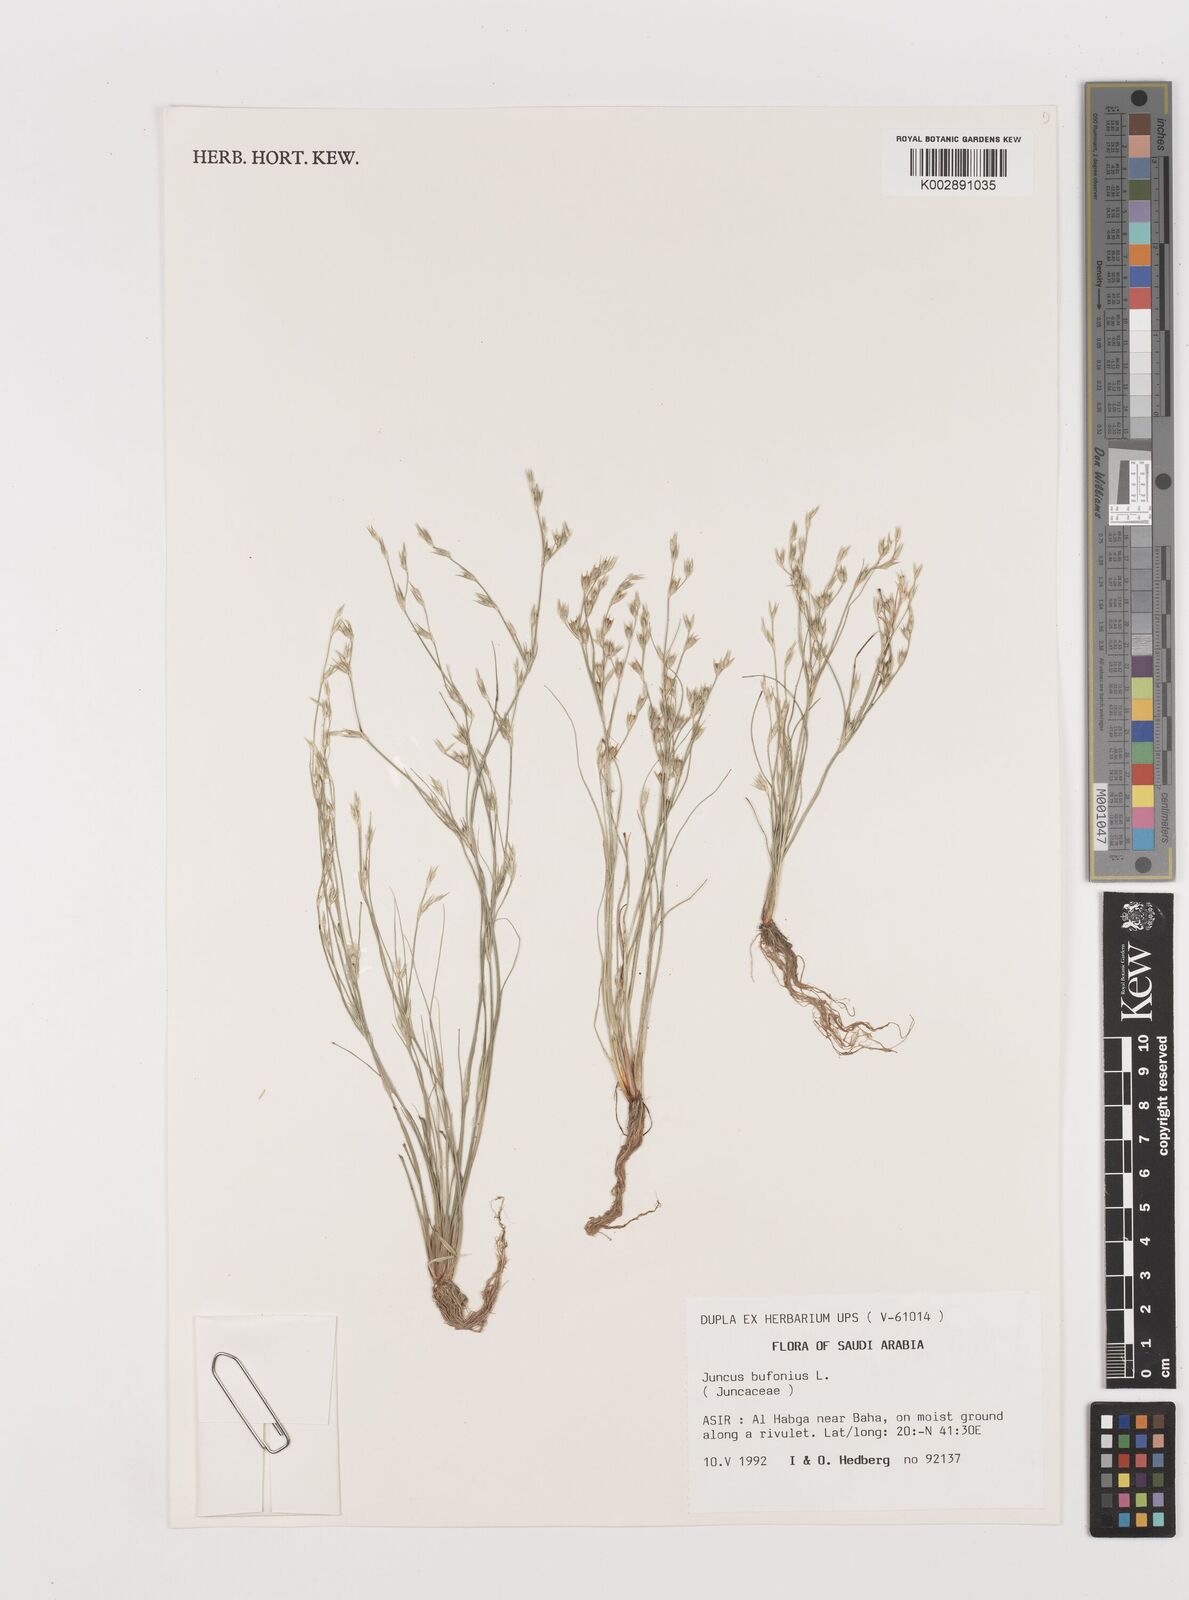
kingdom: Plantae
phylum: Tracheophyta
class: Liliopsida
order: Poales
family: Juncaceae
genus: Juncus
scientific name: Juncus bufonius
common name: Toad rush
